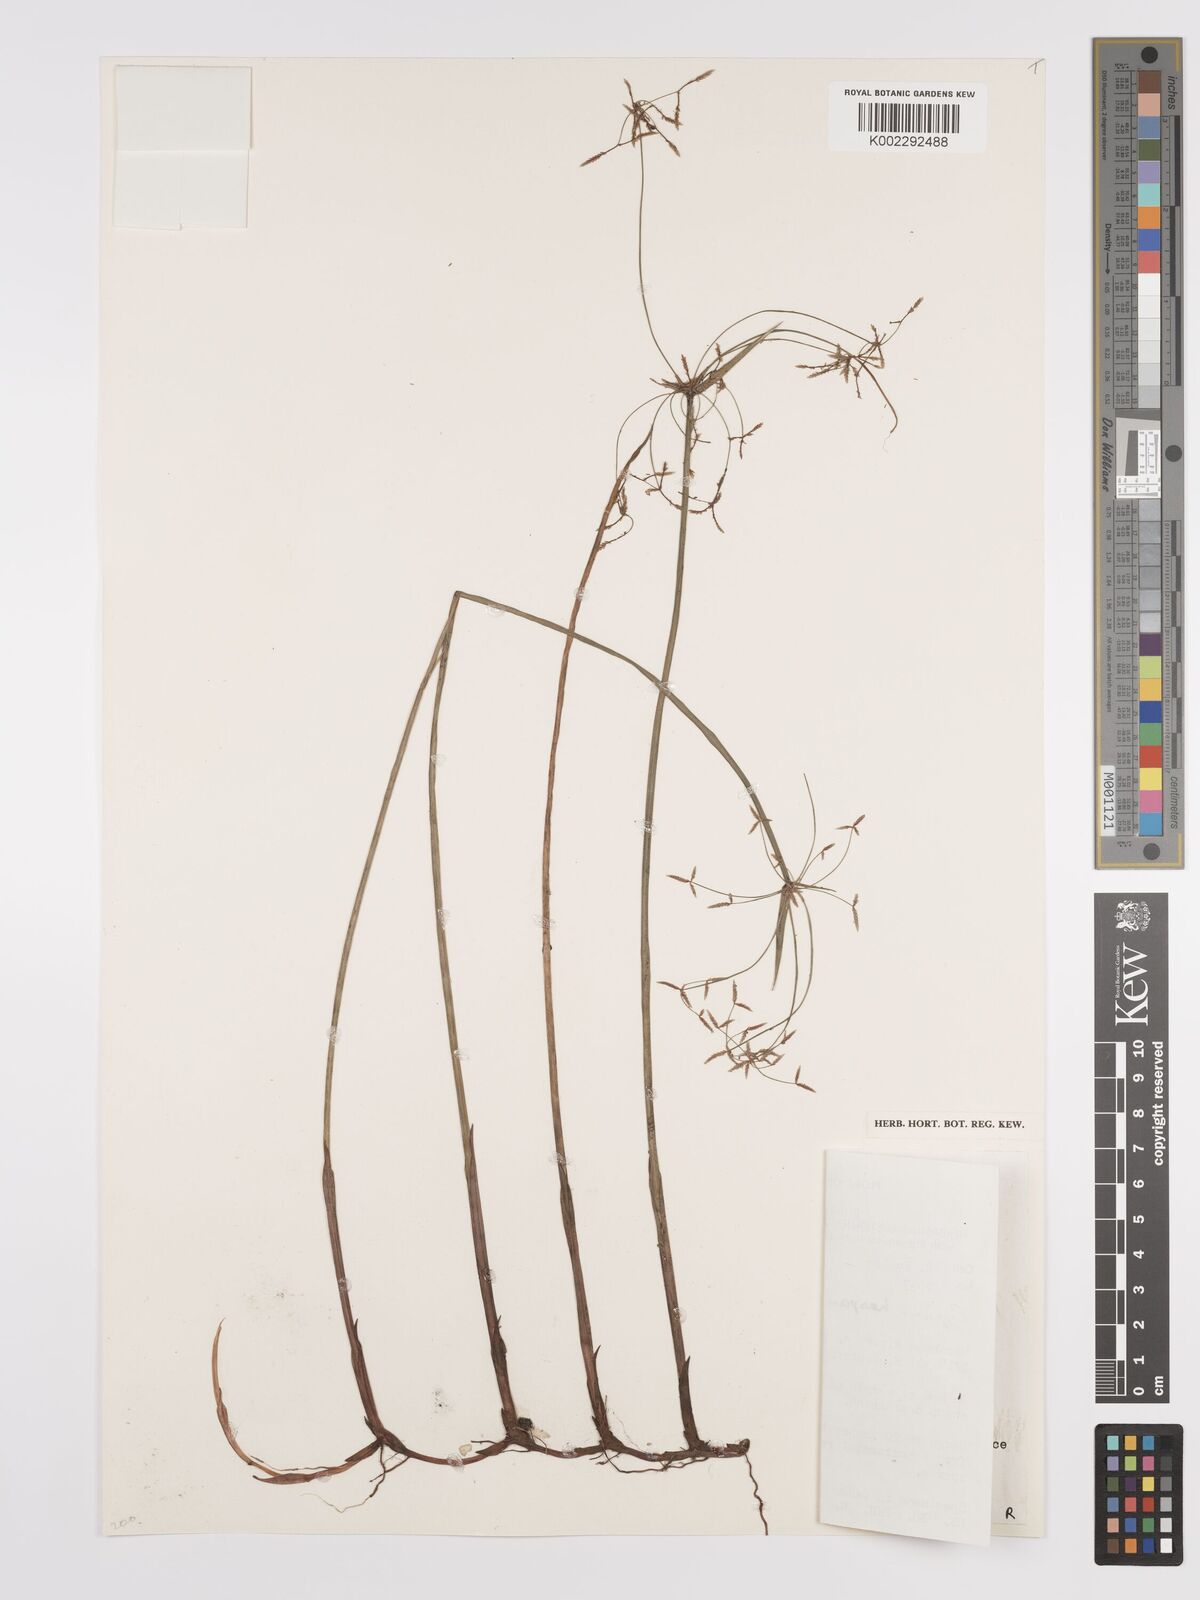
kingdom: Plantae
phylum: Tracheophyta
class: Liliopsida
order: Poales
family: Cyperaceae
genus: Cyperus
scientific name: Cyperus haspan
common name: Haspan flatsedge
